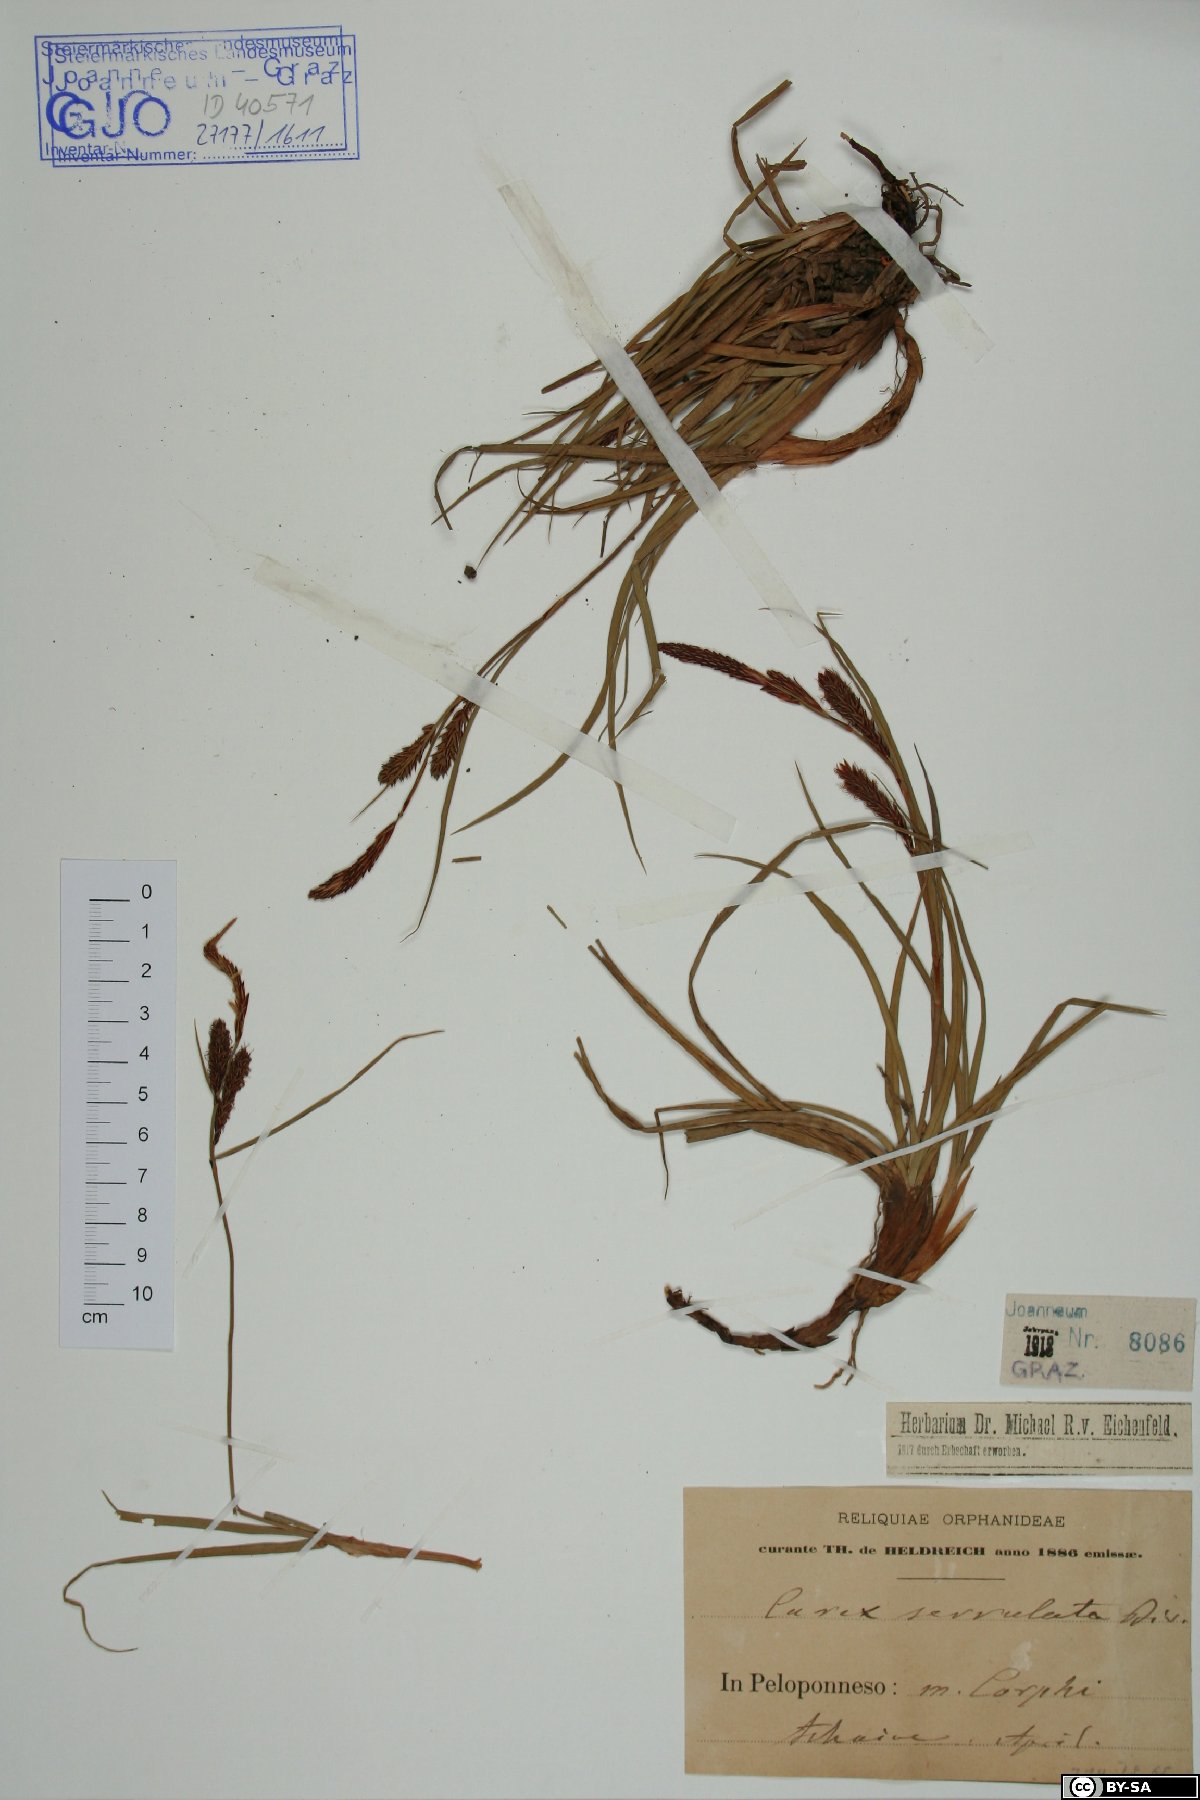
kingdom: Plantae
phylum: Tracheophyta
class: Liliopsida
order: Poales
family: Cyperaceae
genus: Carex
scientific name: Carex flacca
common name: Glaucous sedge
